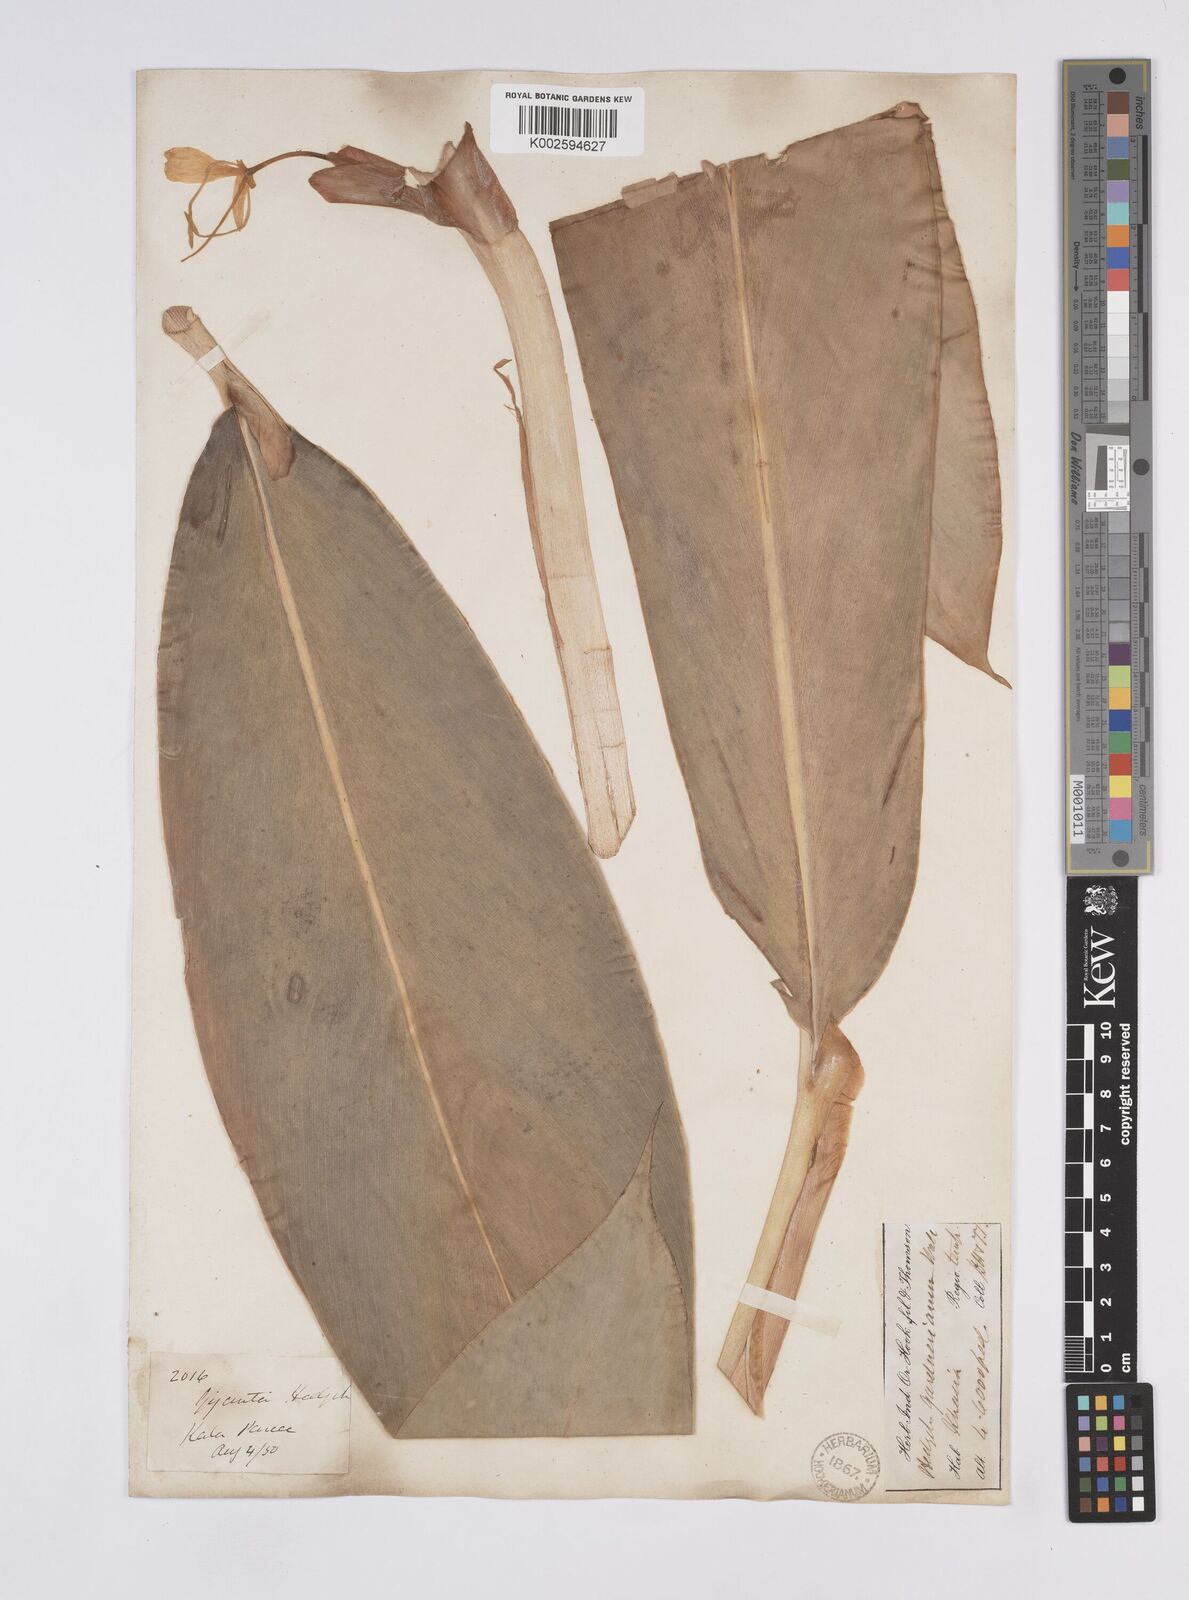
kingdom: Plantae
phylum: Tracheophyta
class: Liliopsida
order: Zingiberales
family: Zingiberaceae
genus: Hedychium
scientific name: Hedychium gardnerianum
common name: Himalayan ginger
